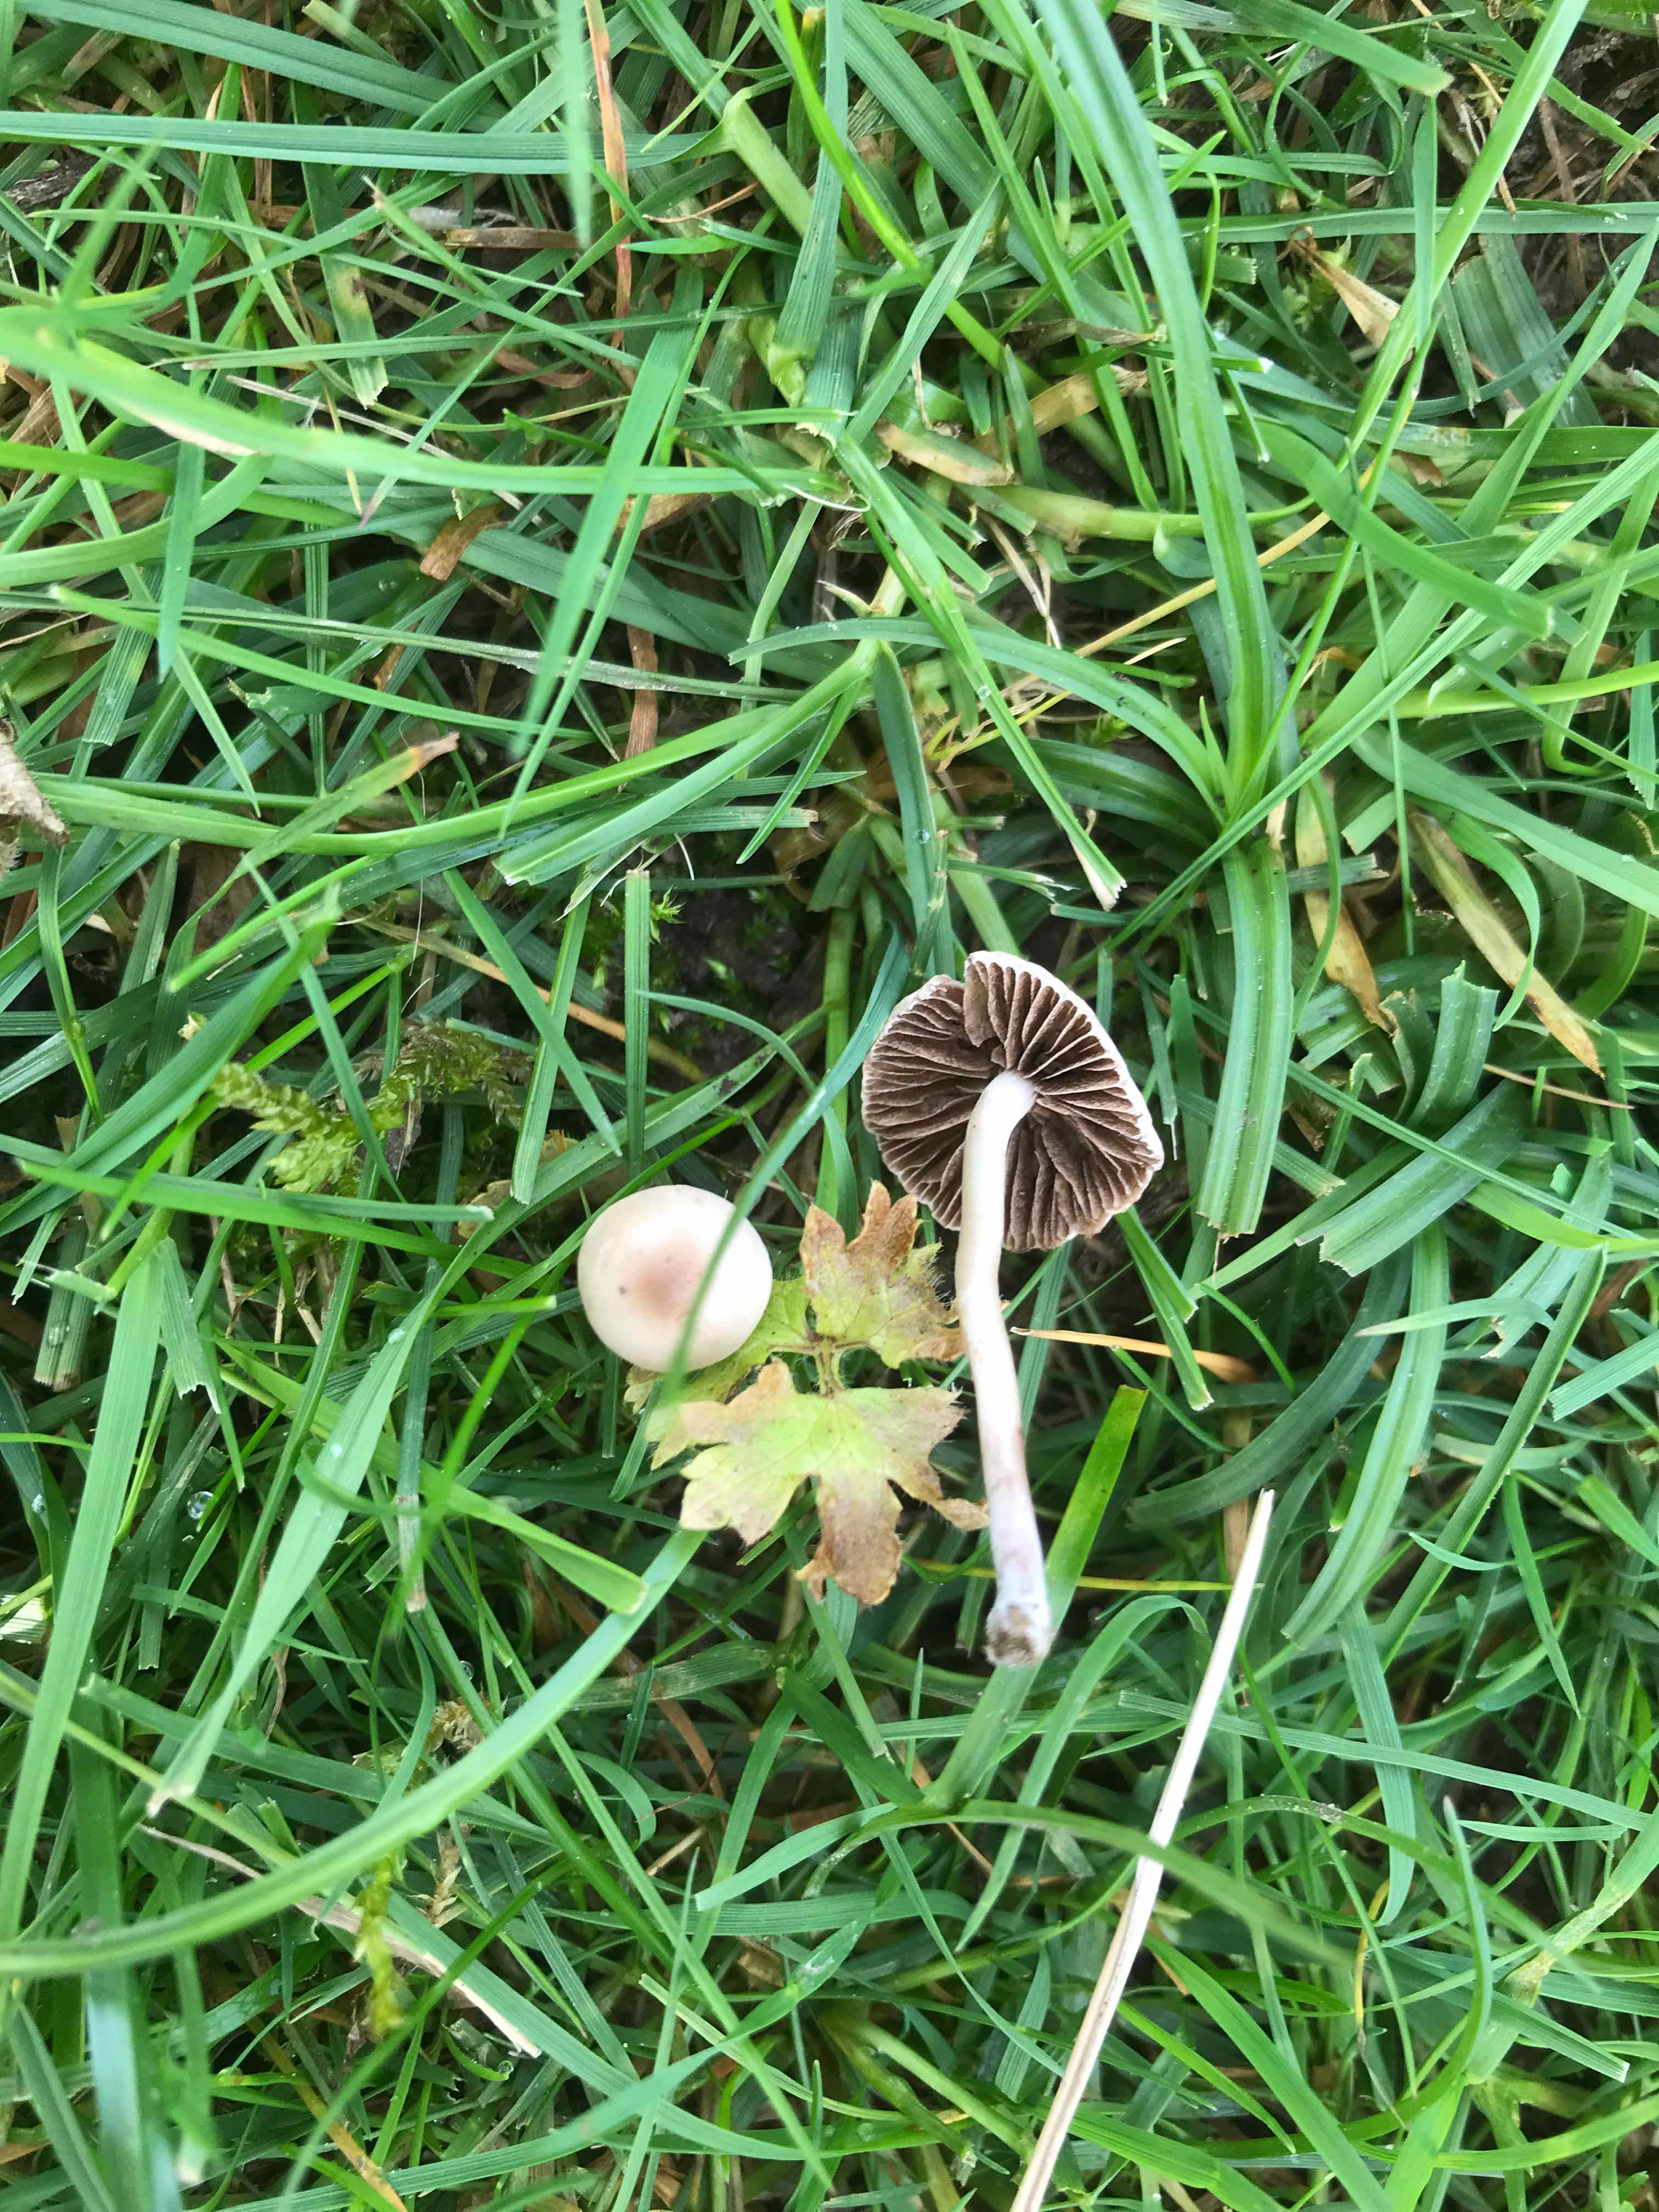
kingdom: Fungi
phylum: Basidiomycota
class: Agaricomycetes
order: Agaricales
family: Bolbitiaceae
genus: Panaeolina
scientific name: Panaeolina foenisecii
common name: høslætsvamp
